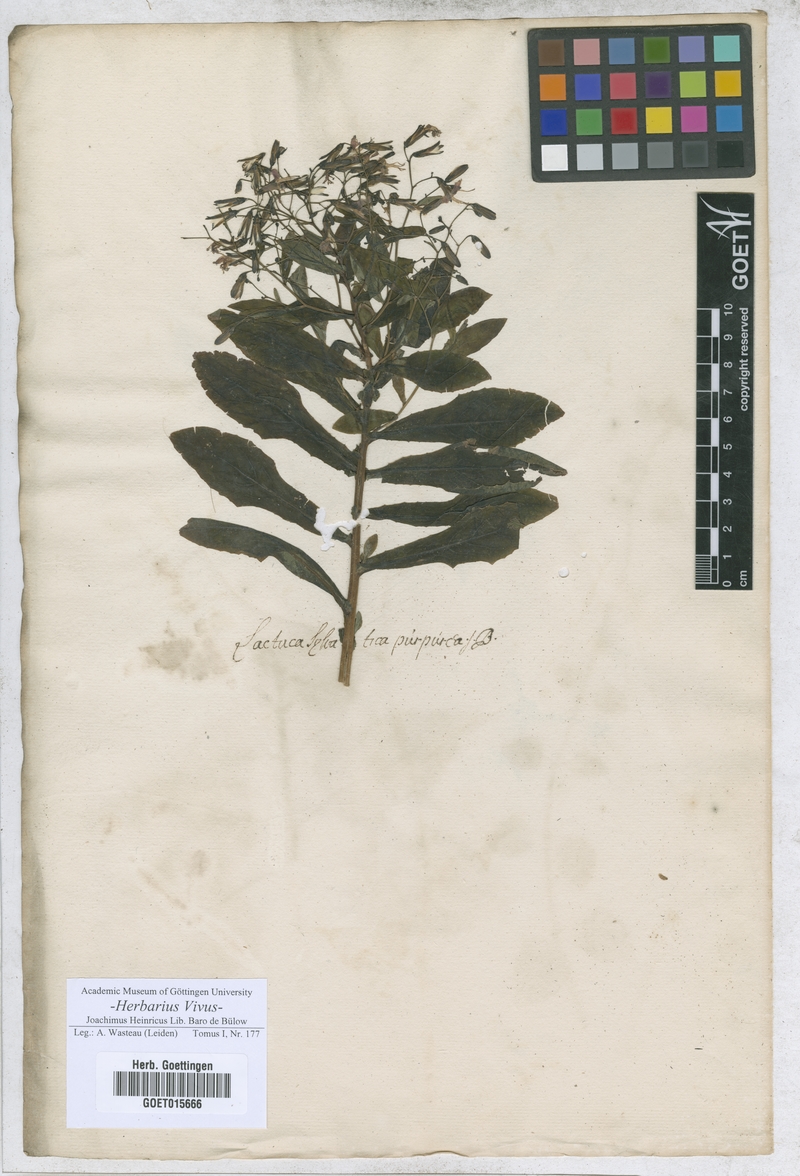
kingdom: Plantae
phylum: Tracheophyta
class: Magnoliopsida
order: Asterales
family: Asteraceae
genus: Lactuca
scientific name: Lactuca
